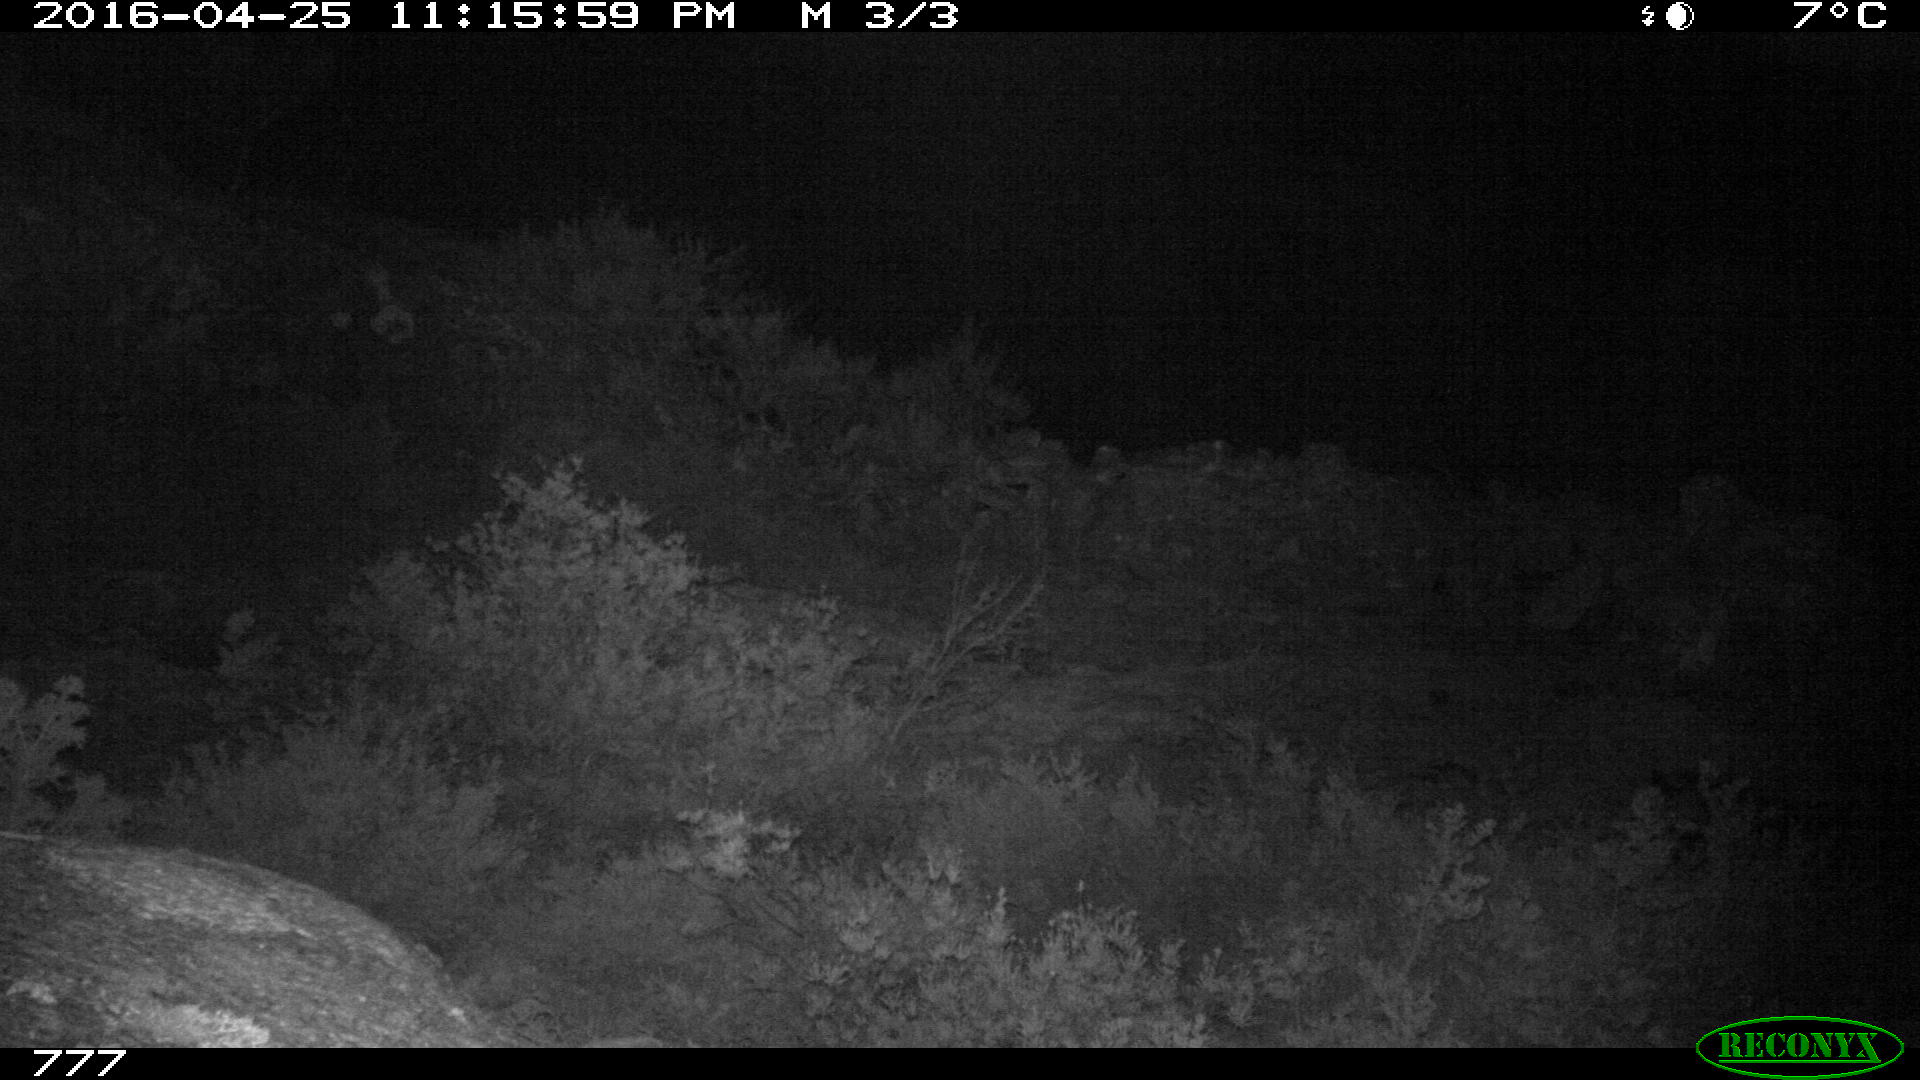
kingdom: Animalia
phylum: Chordata
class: Mammalia
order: Artiodactyla
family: Suidae
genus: Sus
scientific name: Sus scrofa
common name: Wild boar
